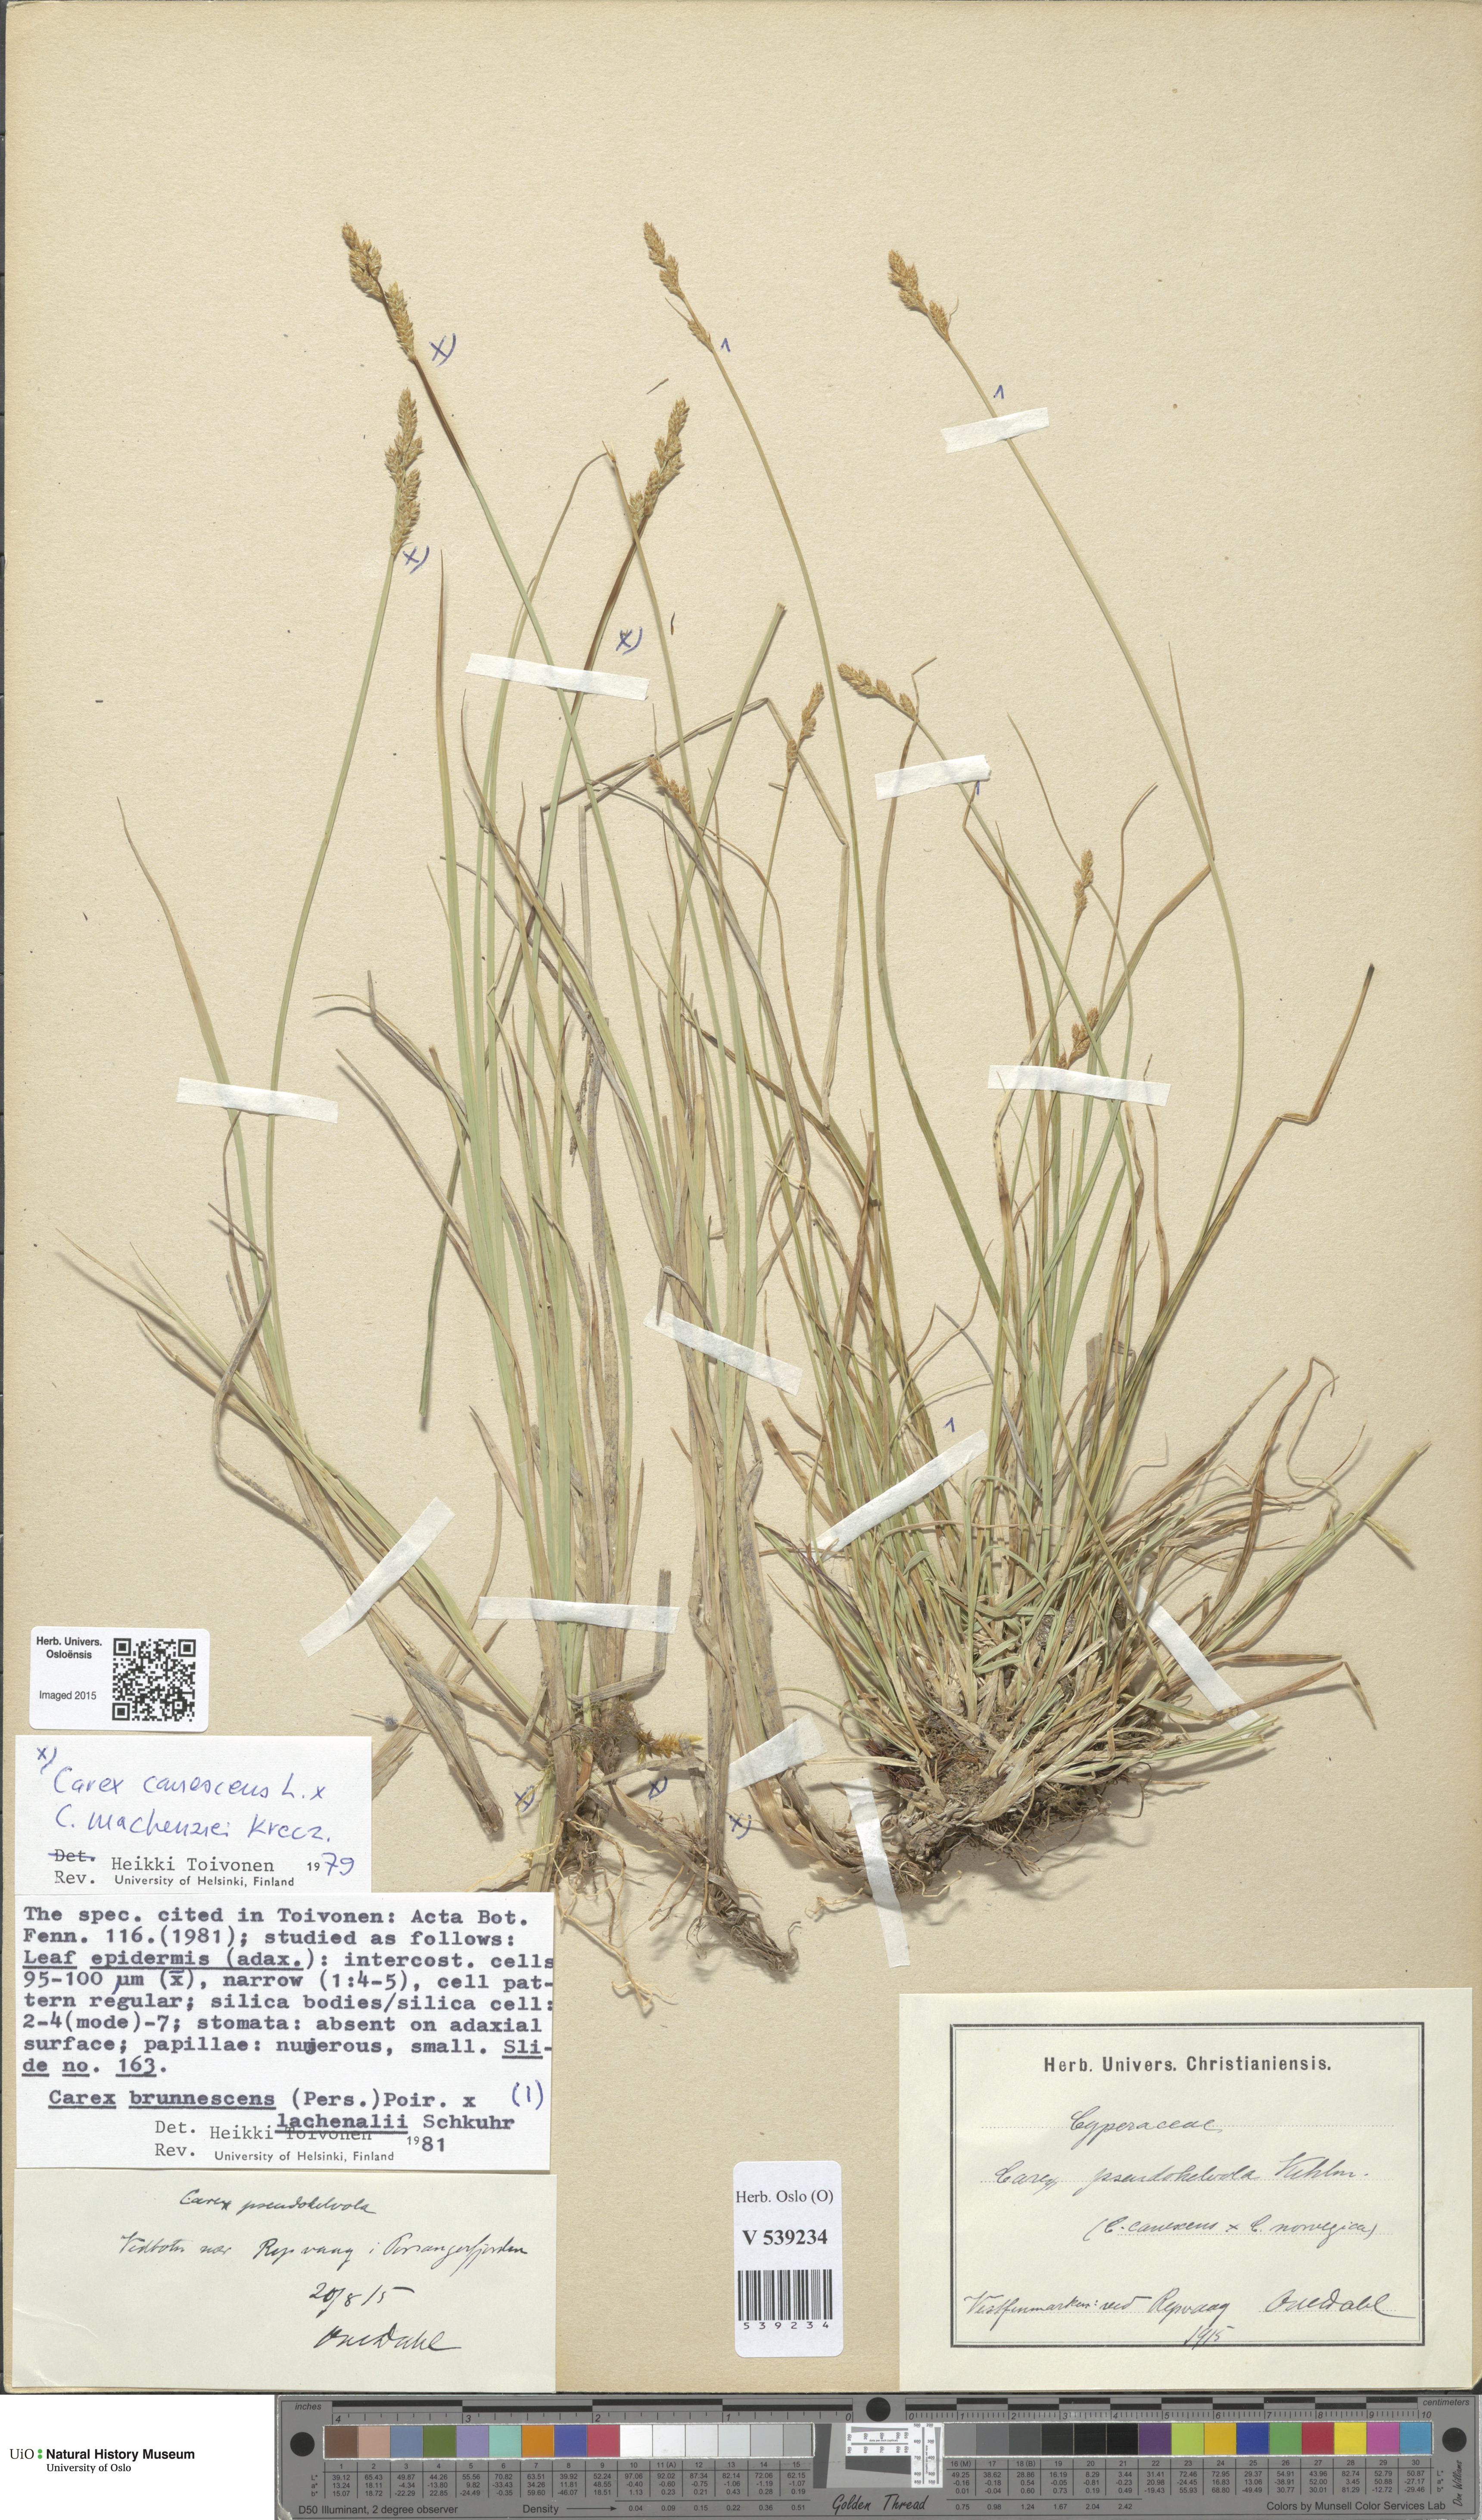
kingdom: Plantae
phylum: Tracheophyta
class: Liliopsida
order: Poales
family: Cyperaceae
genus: Carex
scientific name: Carex
